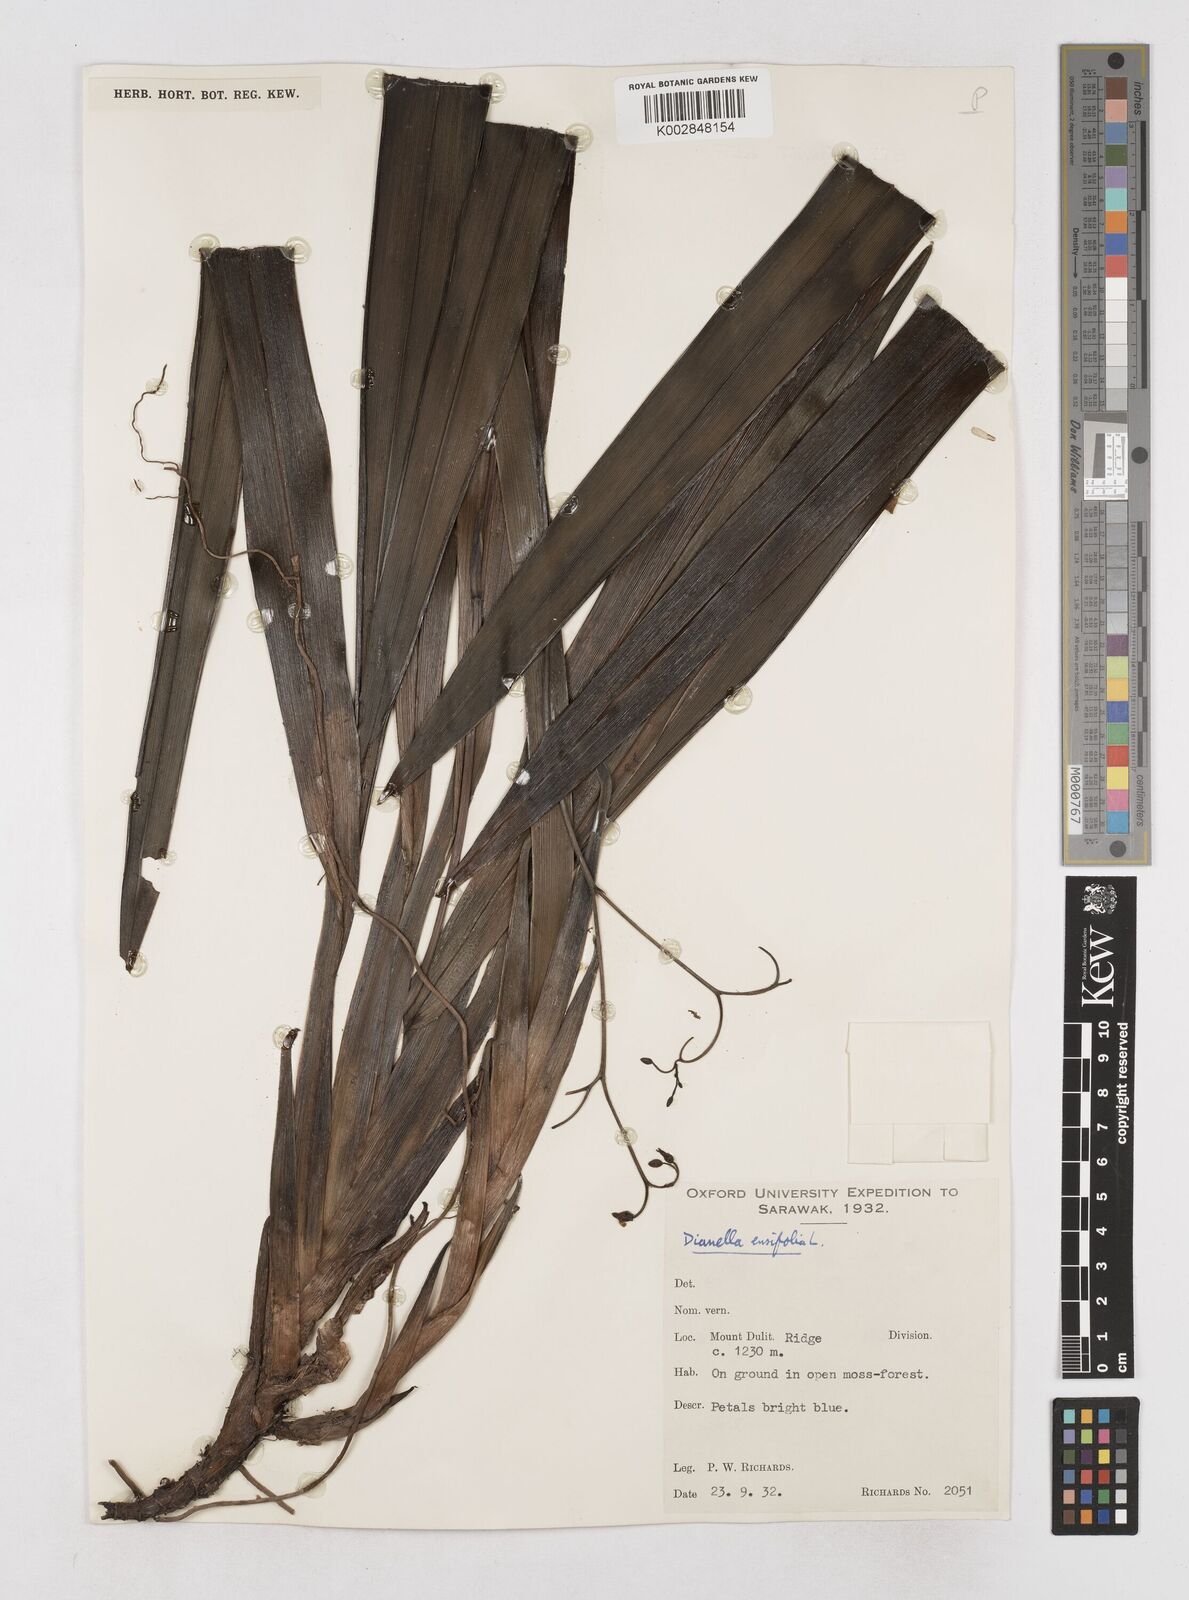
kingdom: Plantae
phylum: Tracheophyta
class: Liliopsida
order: Asparagales
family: Asphodelaceae
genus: Dianella
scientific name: Dianella ensifolia
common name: New zealand lilyplant
